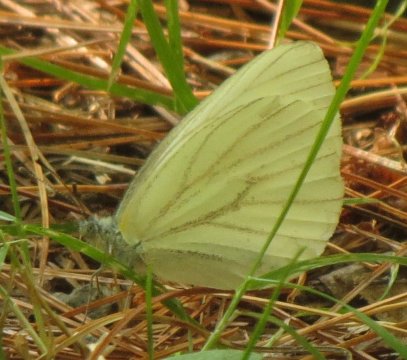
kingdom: Animalia
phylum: Arthropoda
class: Insecta
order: Lepidoptera
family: Pieridae
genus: Pieris
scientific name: Pieris oleracea
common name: Mustard White
